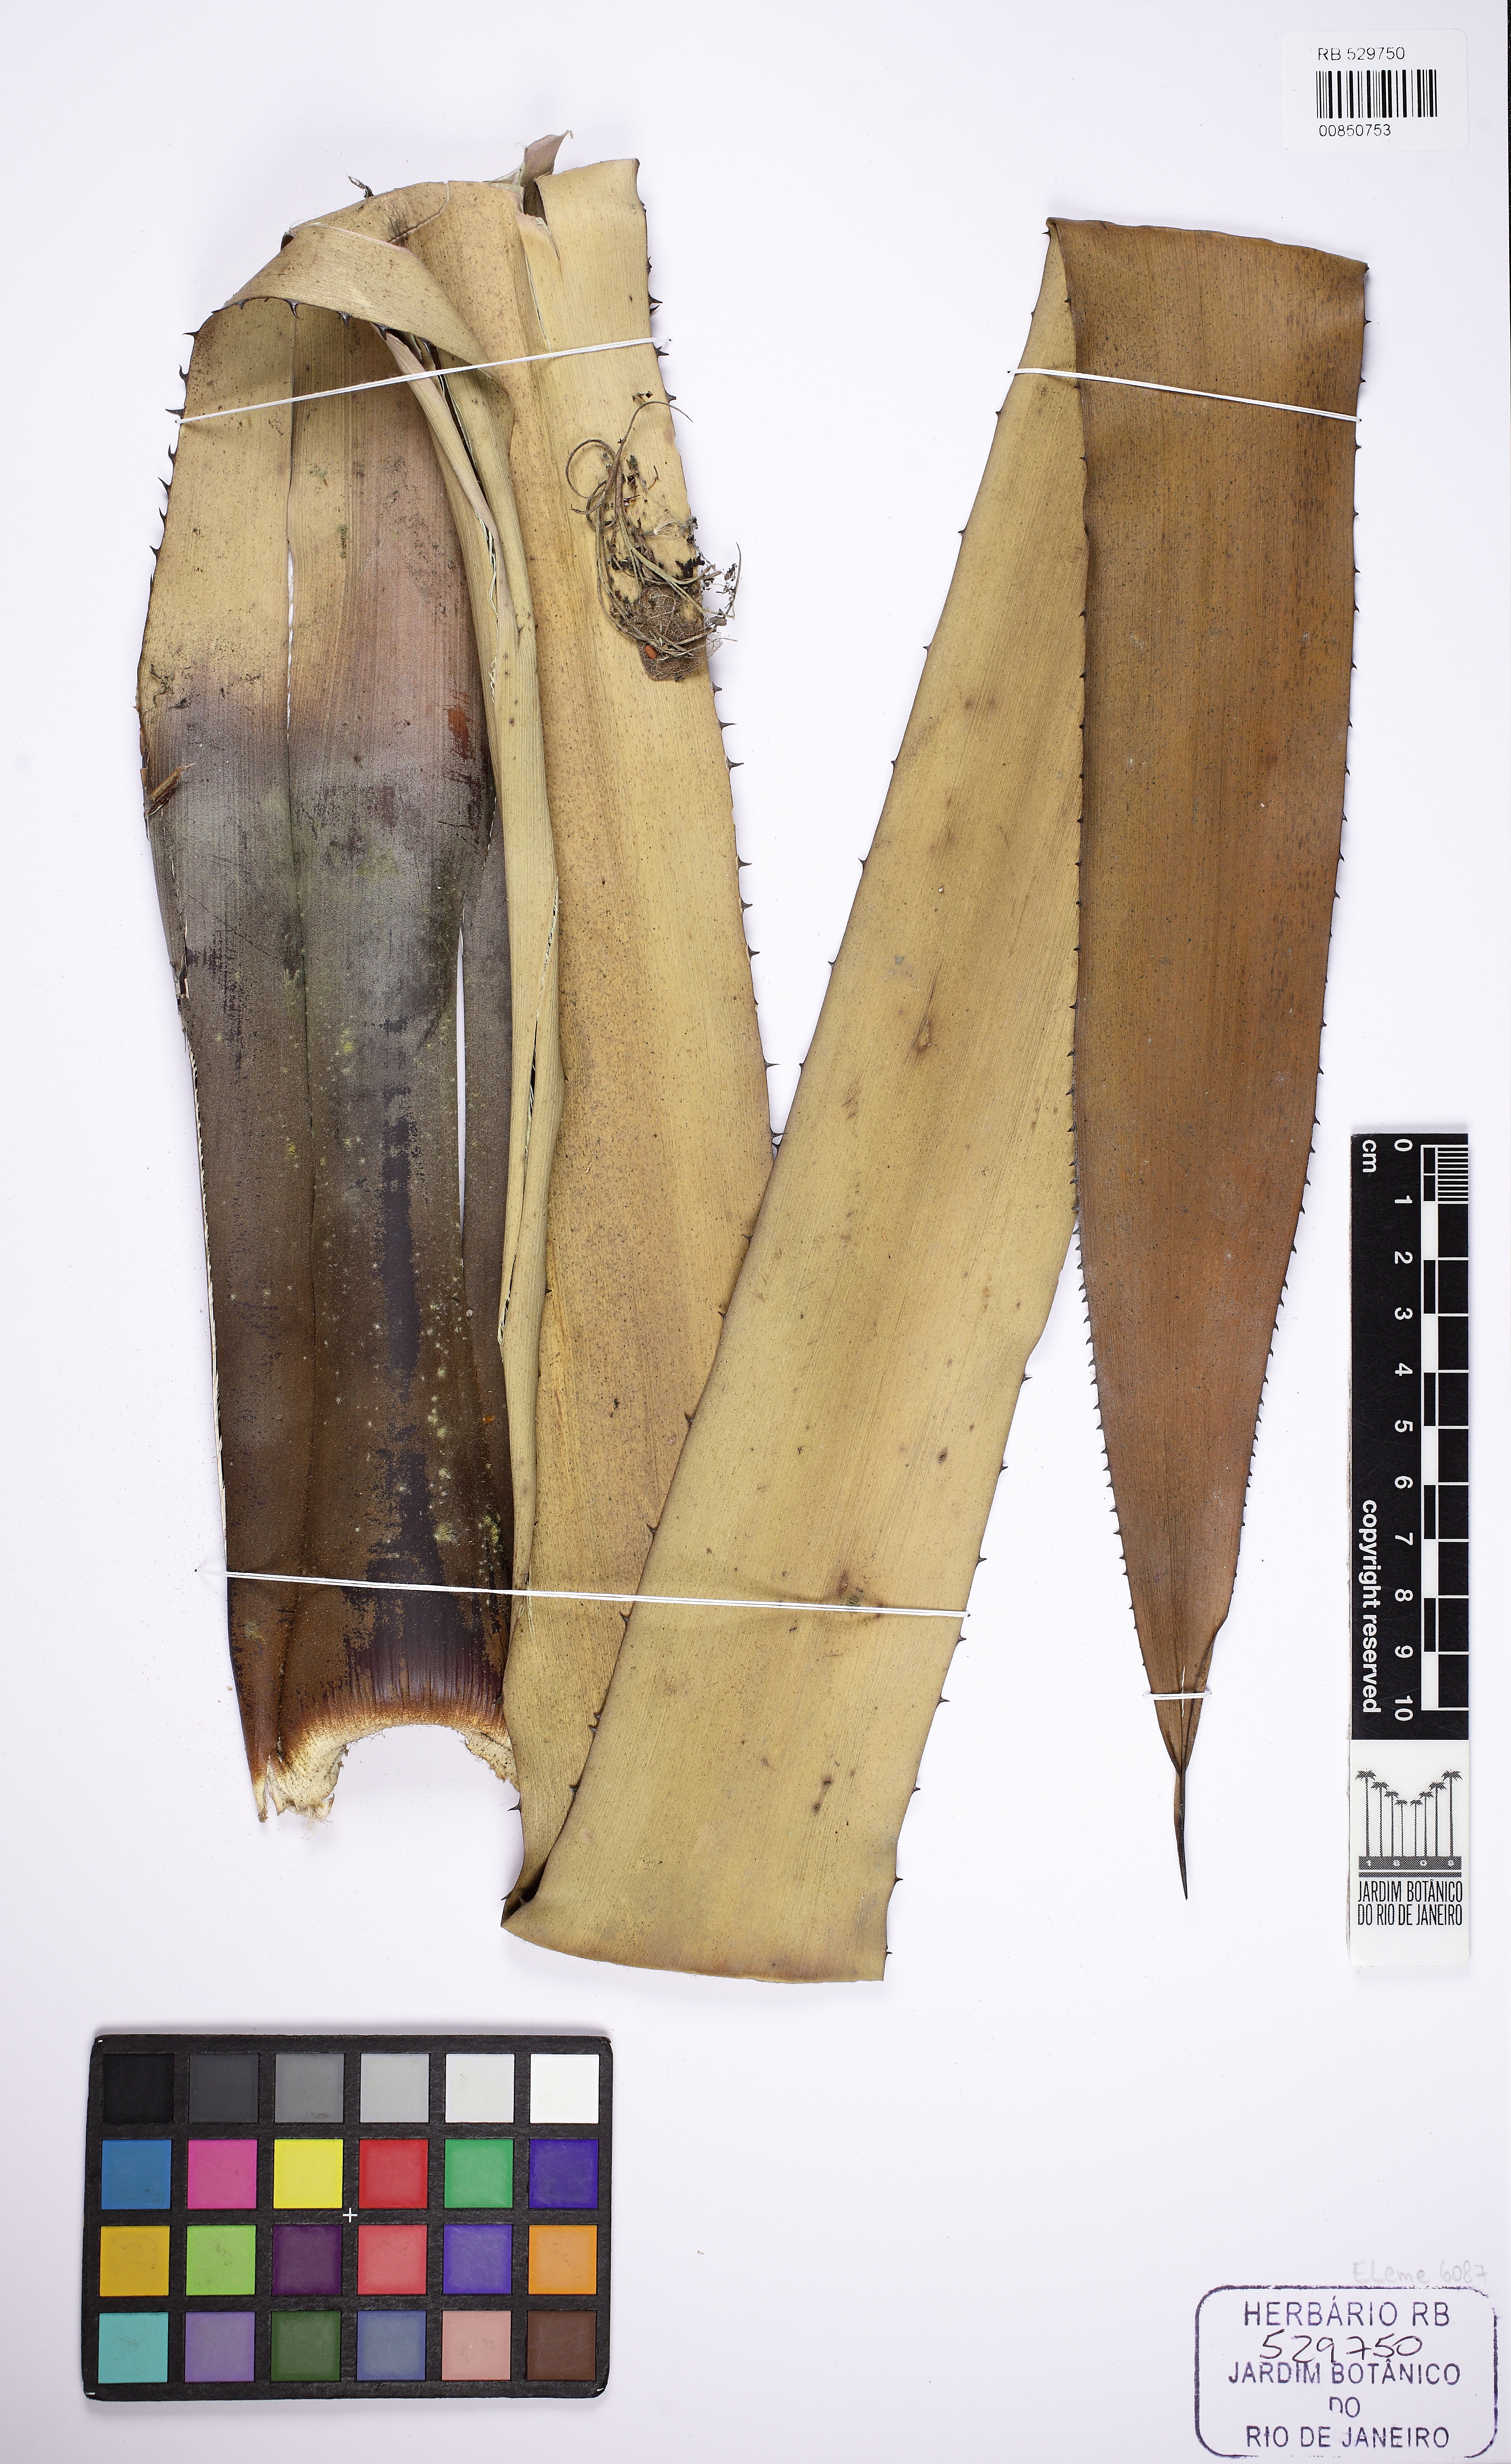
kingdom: Plantae
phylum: Tracheophyta
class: Liliopsida
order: Poales
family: Bromeliaceae
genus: Hohenbergia
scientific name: Hohenbergia viridirubra
